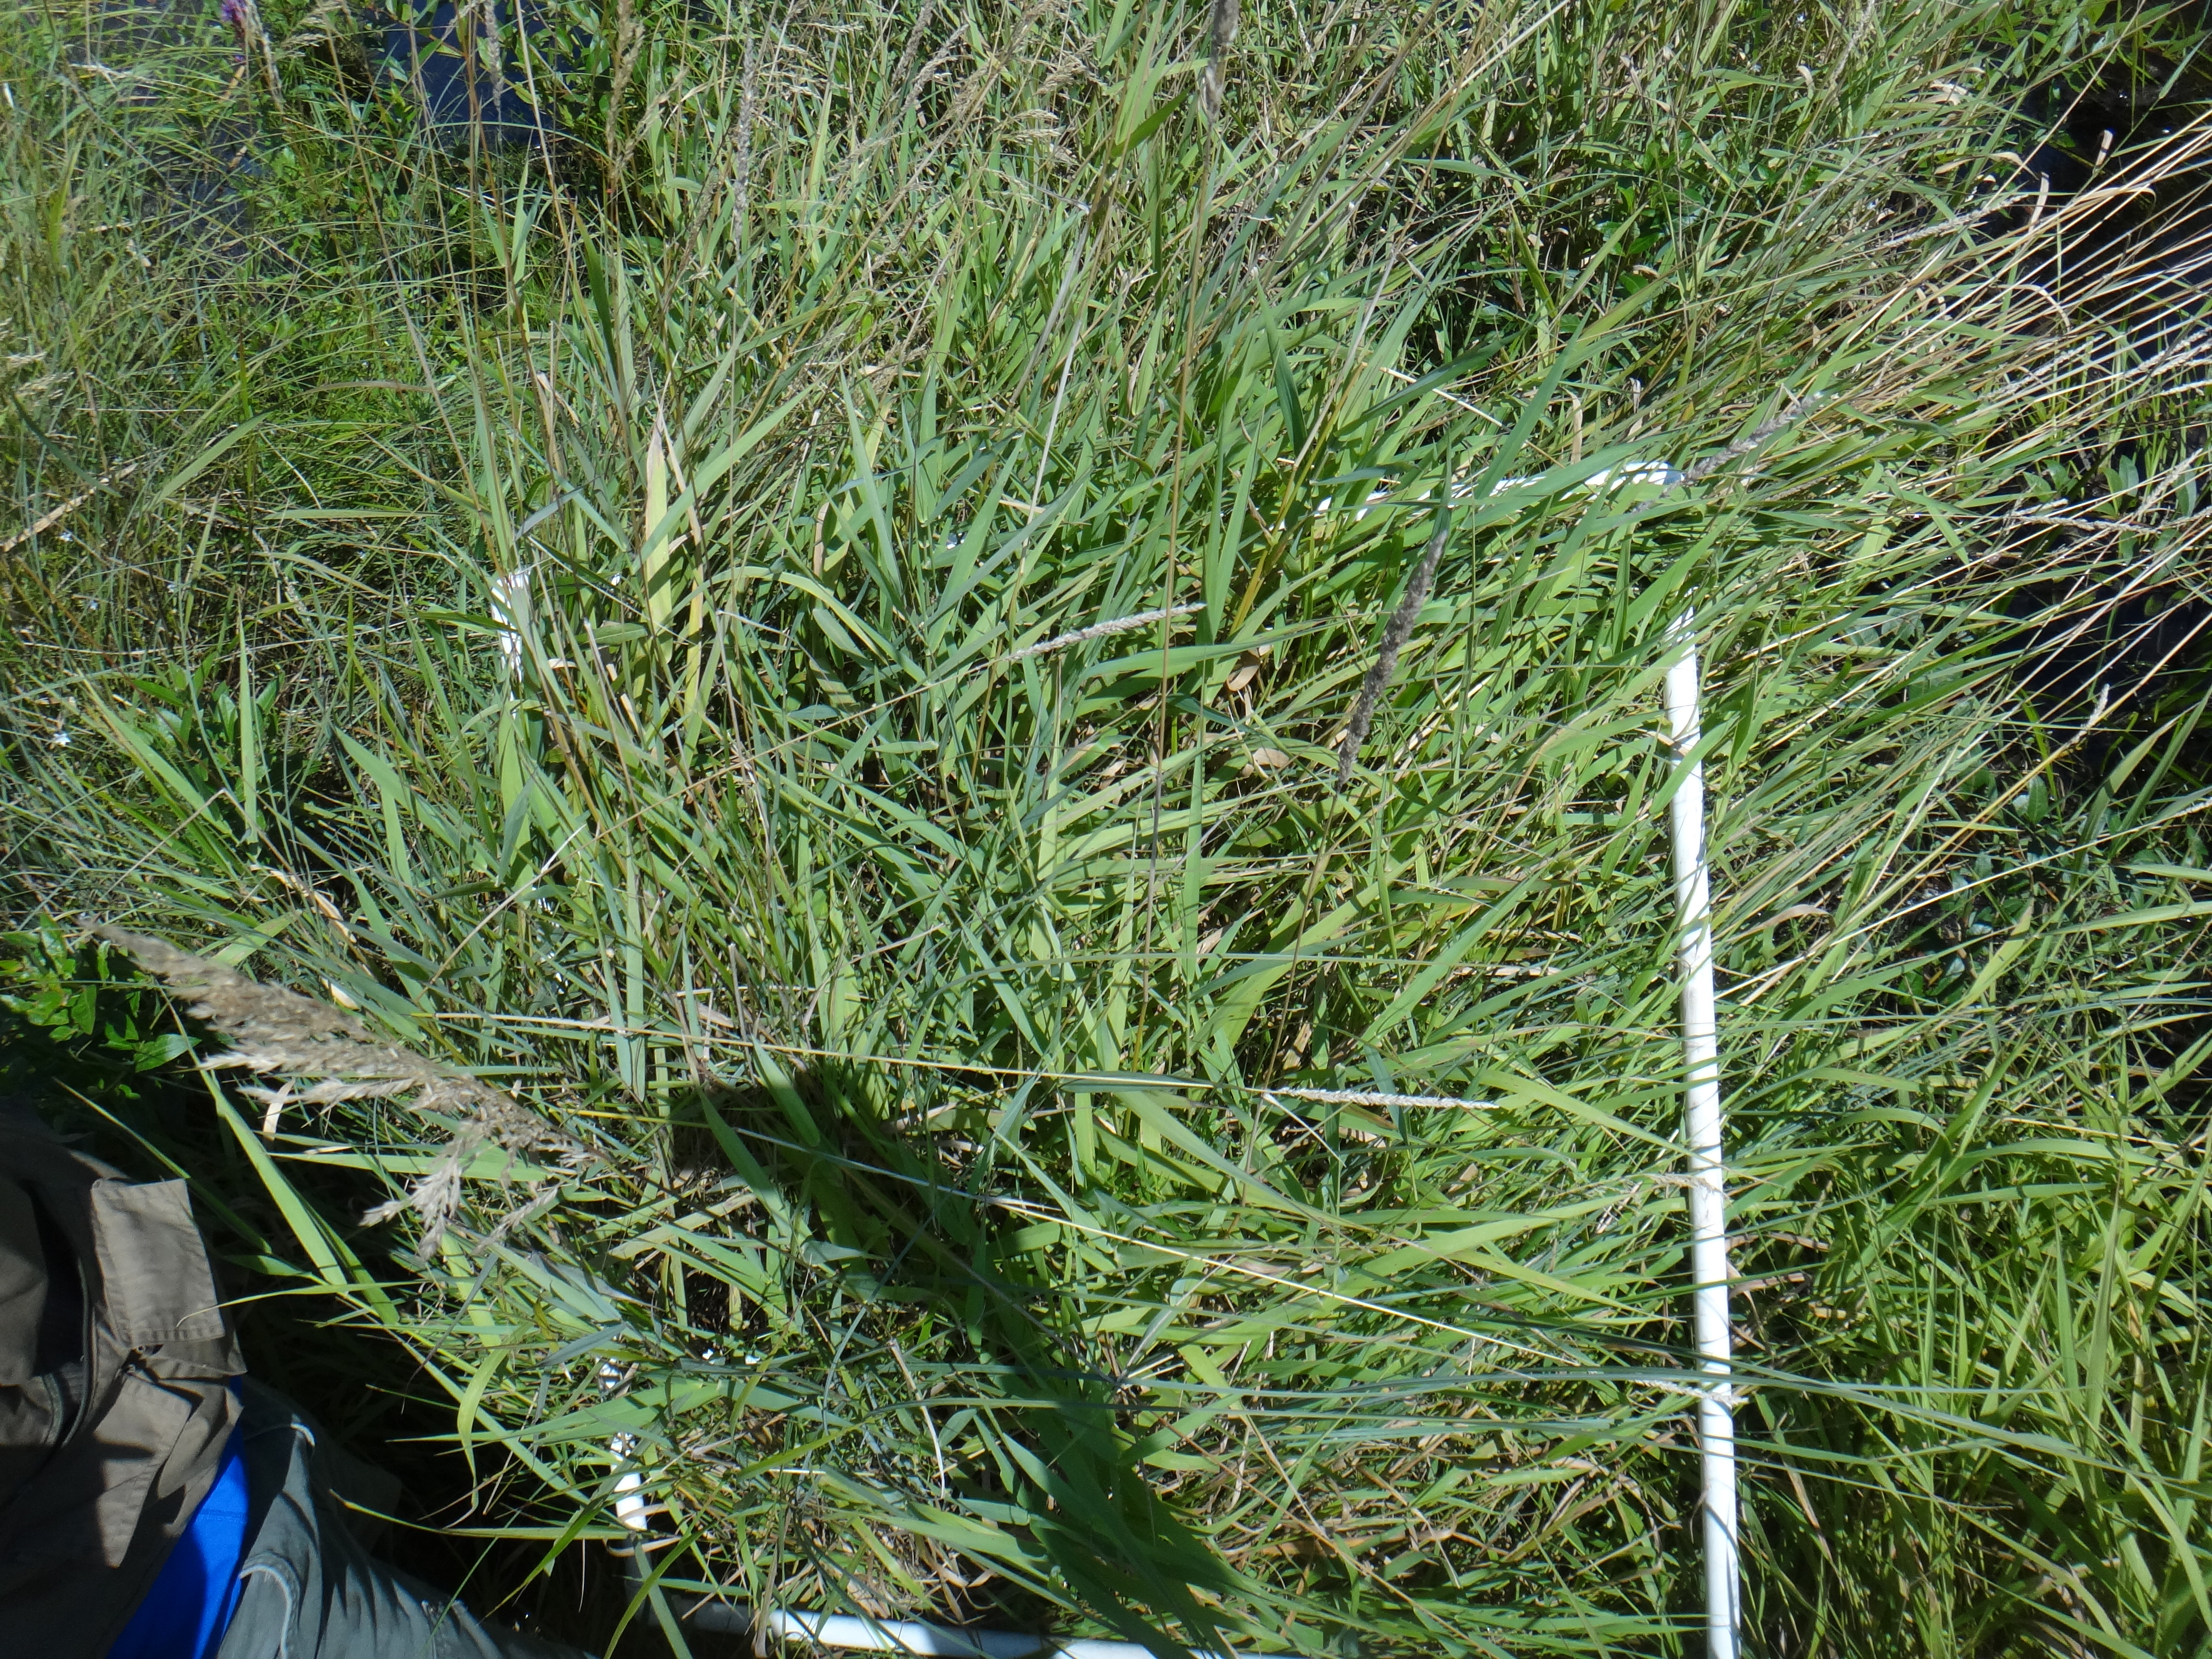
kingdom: Plantae
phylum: Tracheophyta
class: Liliopsida
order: Poales
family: Poaceae
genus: Agrostis
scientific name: Agrostis gigantea
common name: Black bent
